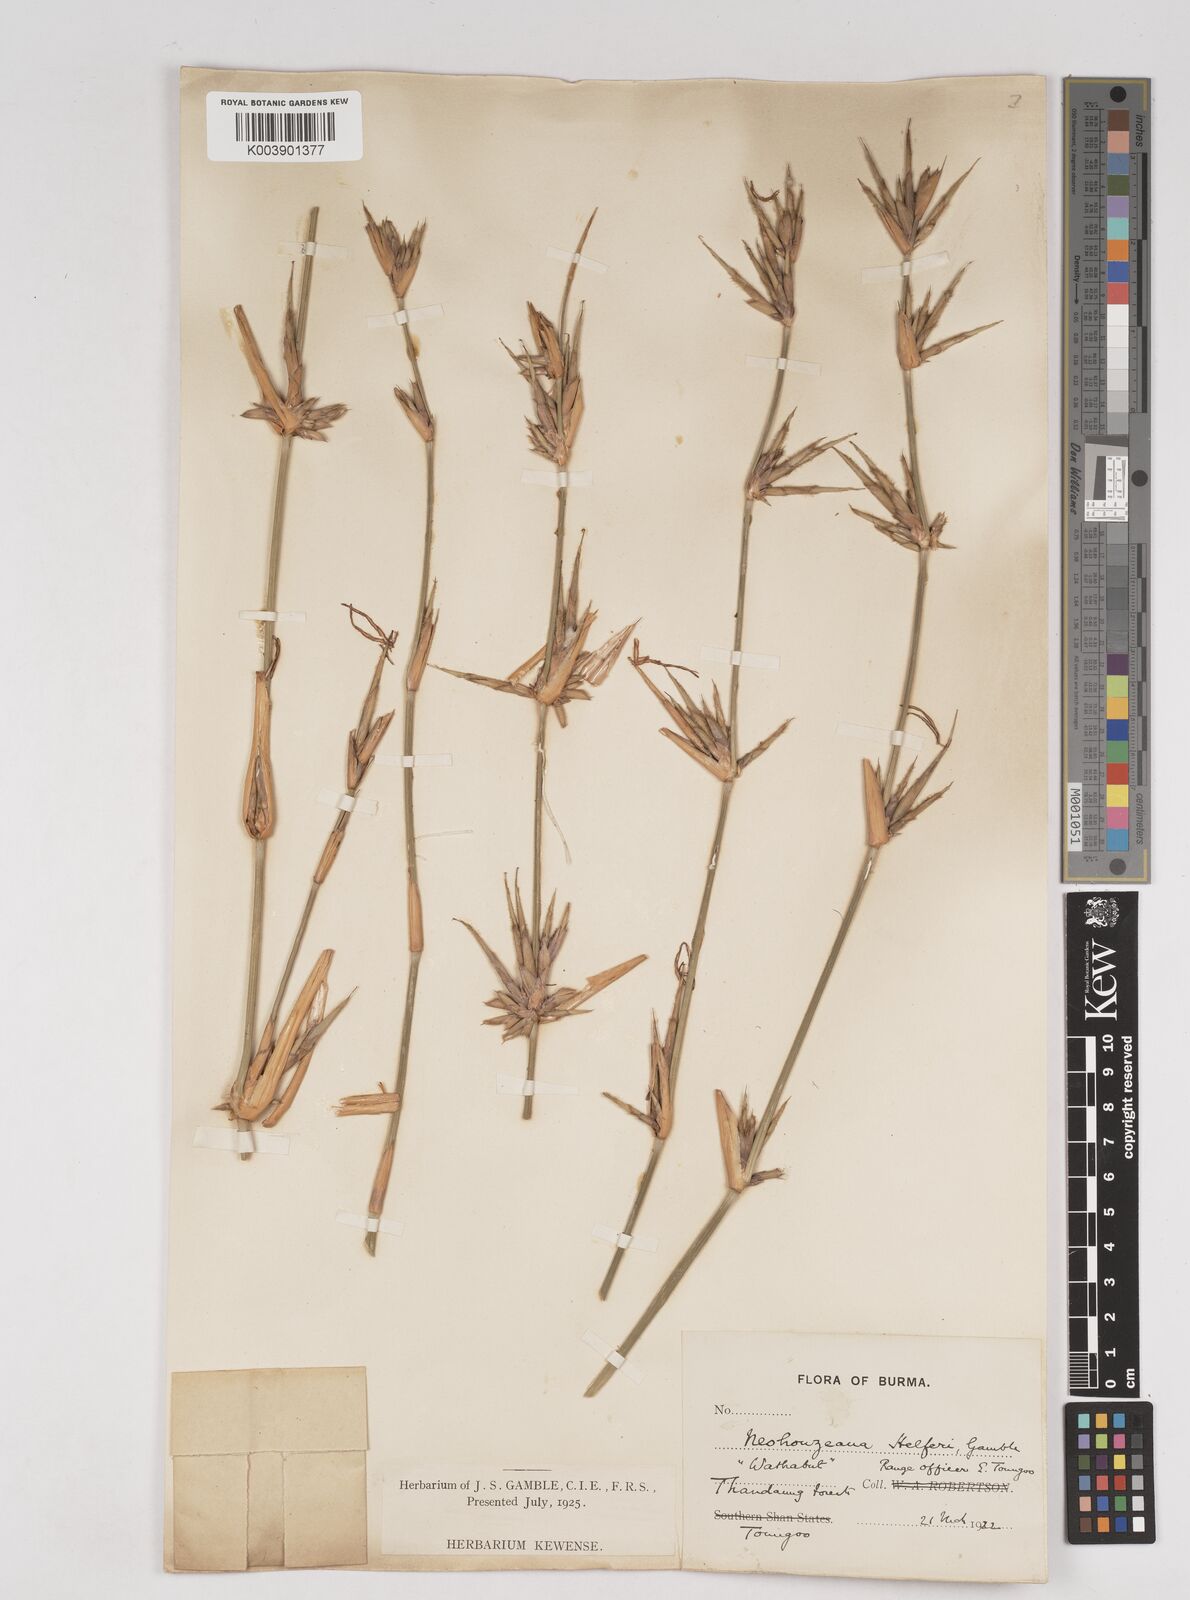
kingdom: Plantae
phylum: Tracheophyta
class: Liliopsida
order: Poales
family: Poaceae
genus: Schizostachyum
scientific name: Schizostachyum helferi
